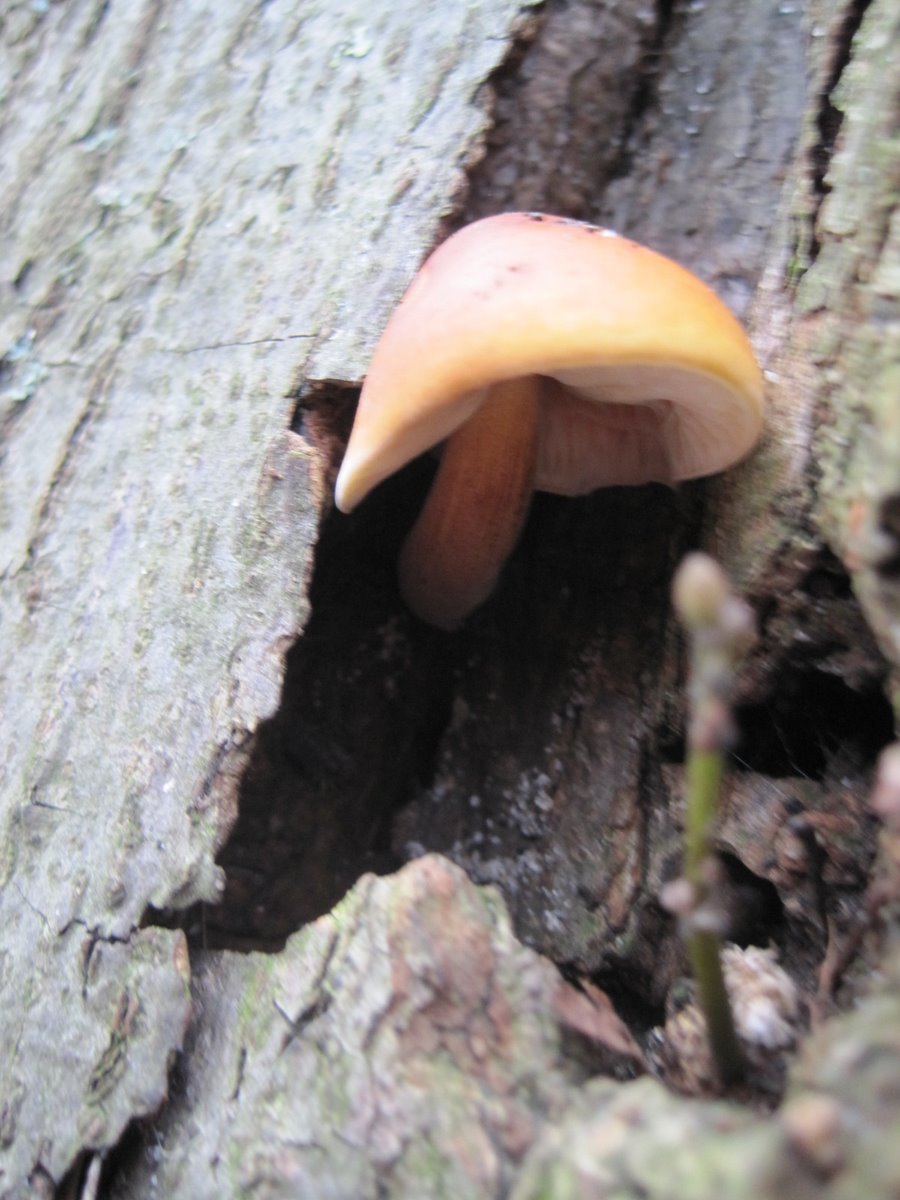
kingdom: Fungi
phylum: Basidiomycota
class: Agaricomycetes
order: Agaricales
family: Physalacriaceae
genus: Flammulina
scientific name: Flammulina velutipes
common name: gul fløjlsfod
